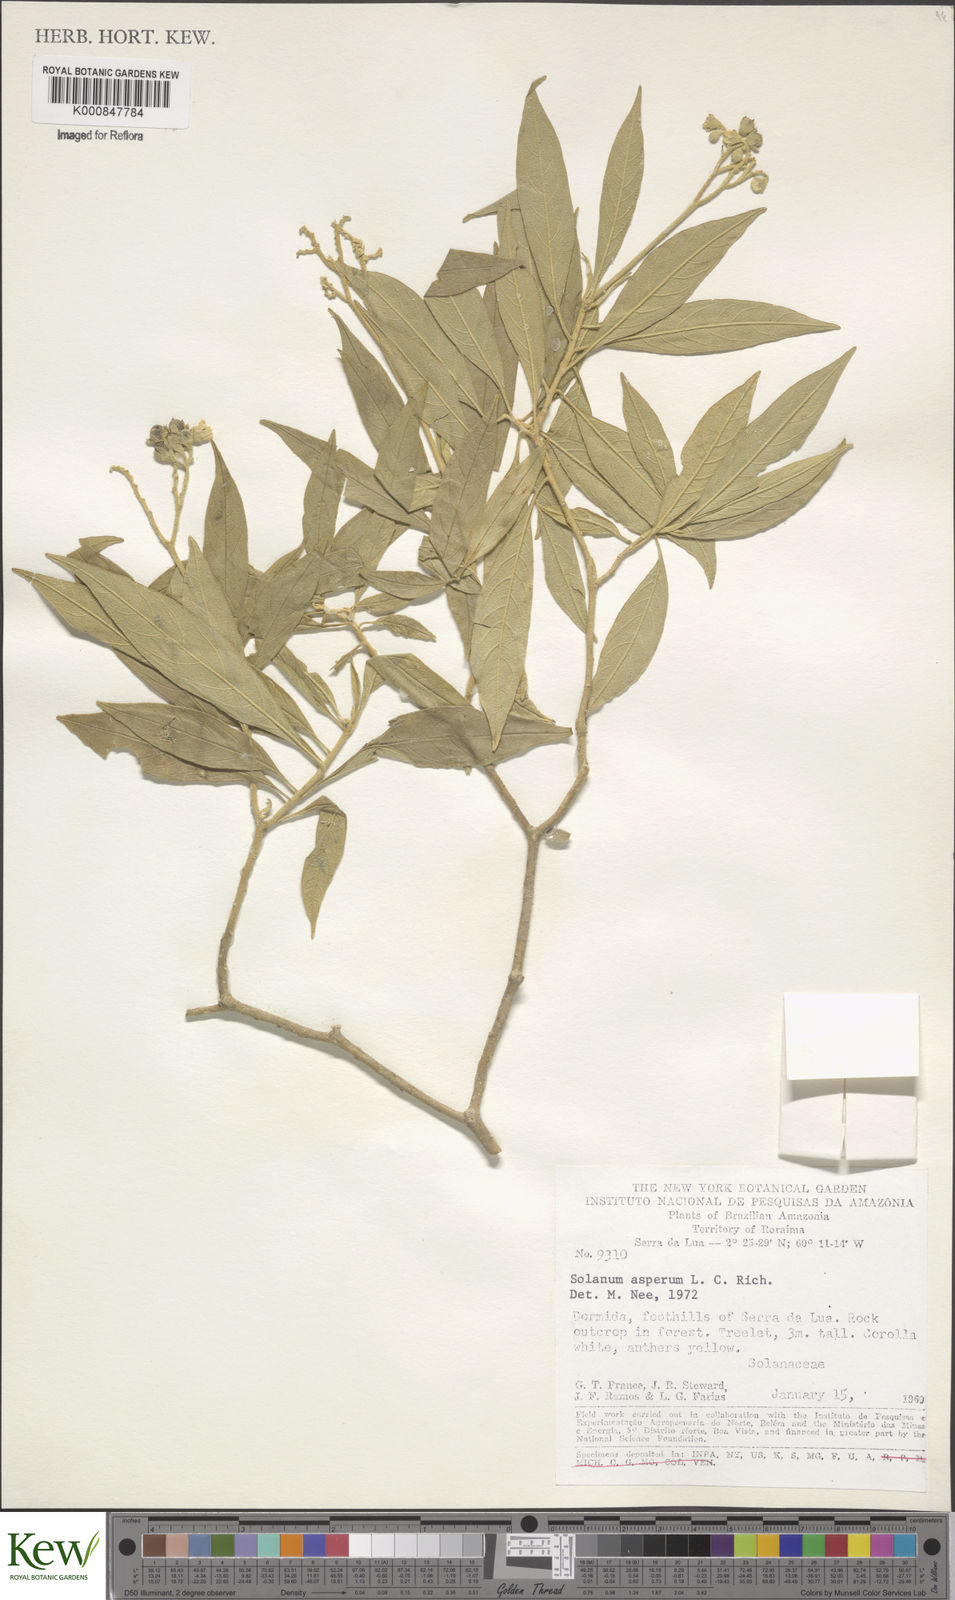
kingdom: Plantae
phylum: Tracheophyta
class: Magnoliopsida
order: Solanales
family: Solanaceae
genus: Solanum
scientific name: Solanum asperum
